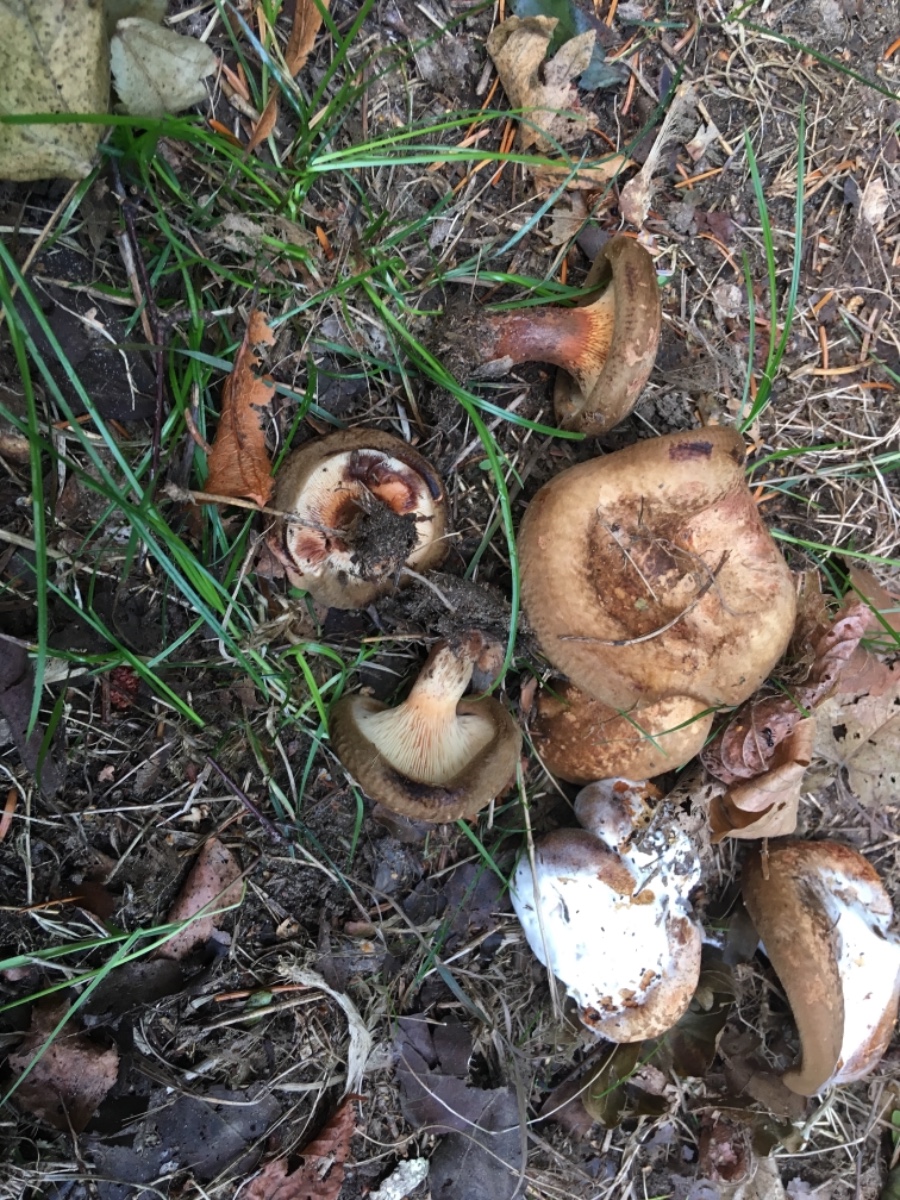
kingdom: Fungi
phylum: Basidiomycota
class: Agaricomycetes
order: Boletales
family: Paxillaceae
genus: Paxillus
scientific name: Paxillus involutus
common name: almindelig netbladhat
